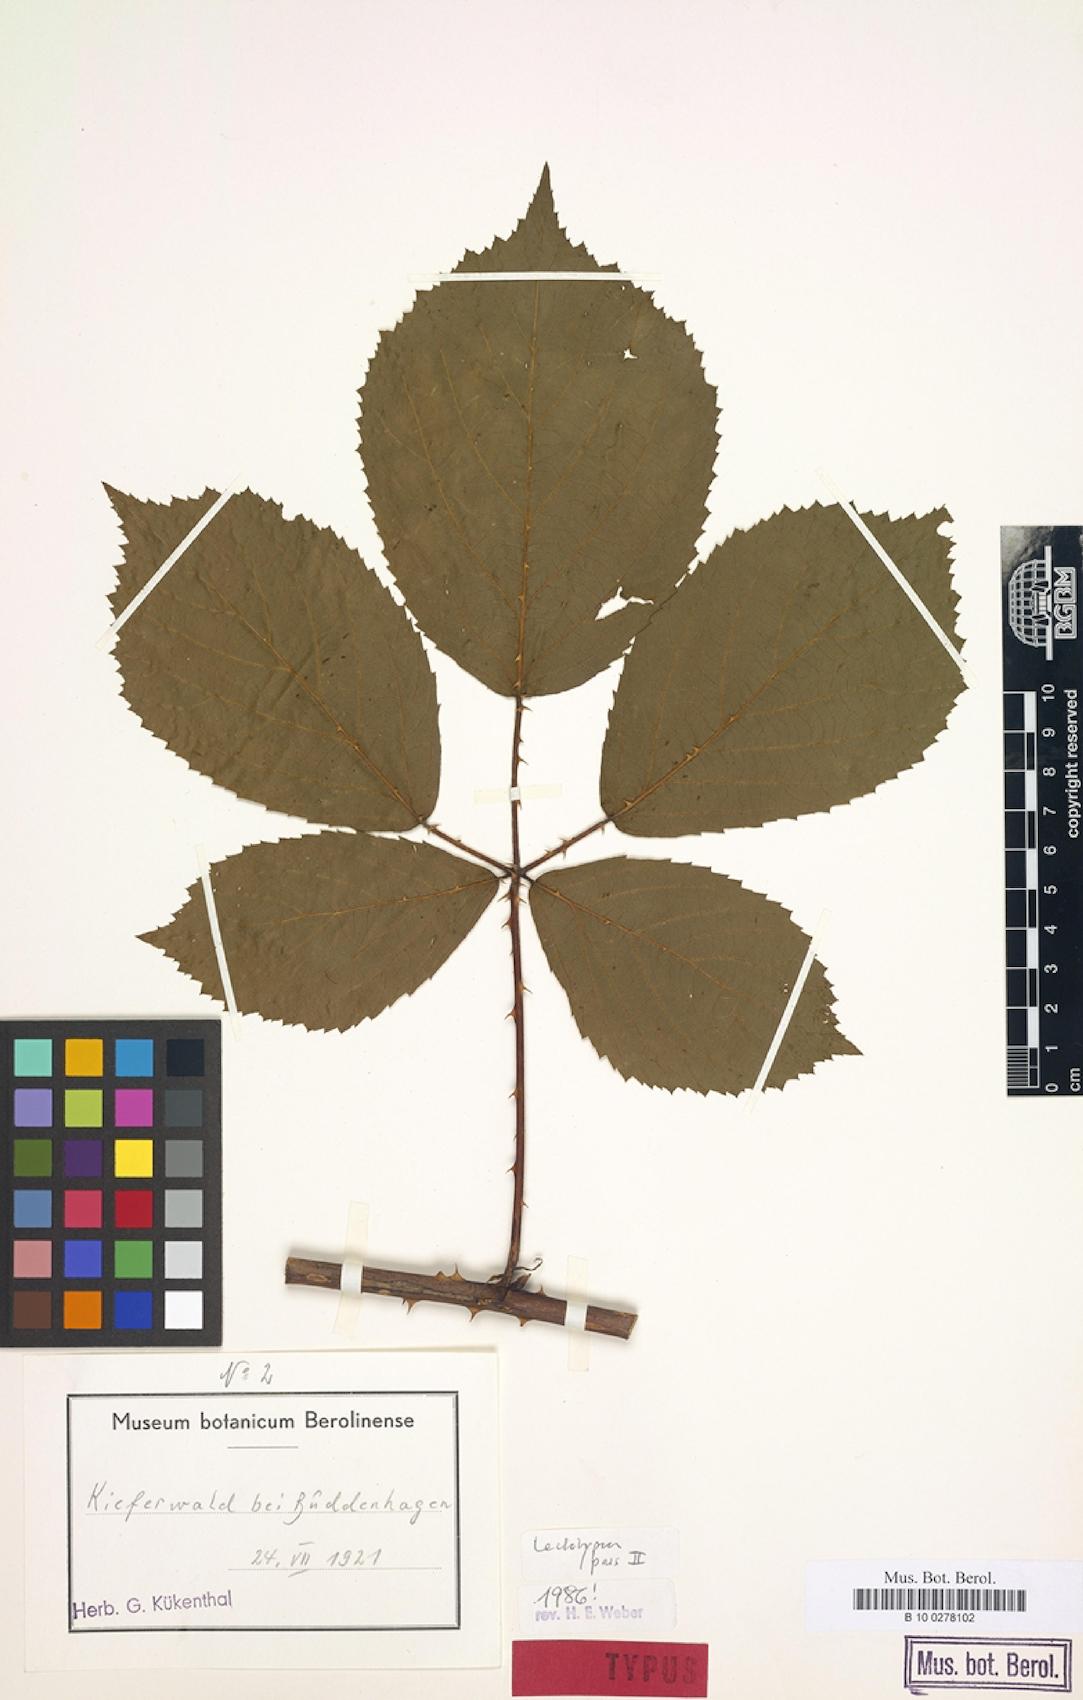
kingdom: Plantae
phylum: Tracheophyta
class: Magnoliopsida
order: Rosales
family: Rosaceae
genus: Rubus
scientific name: Rubus umbrosus
